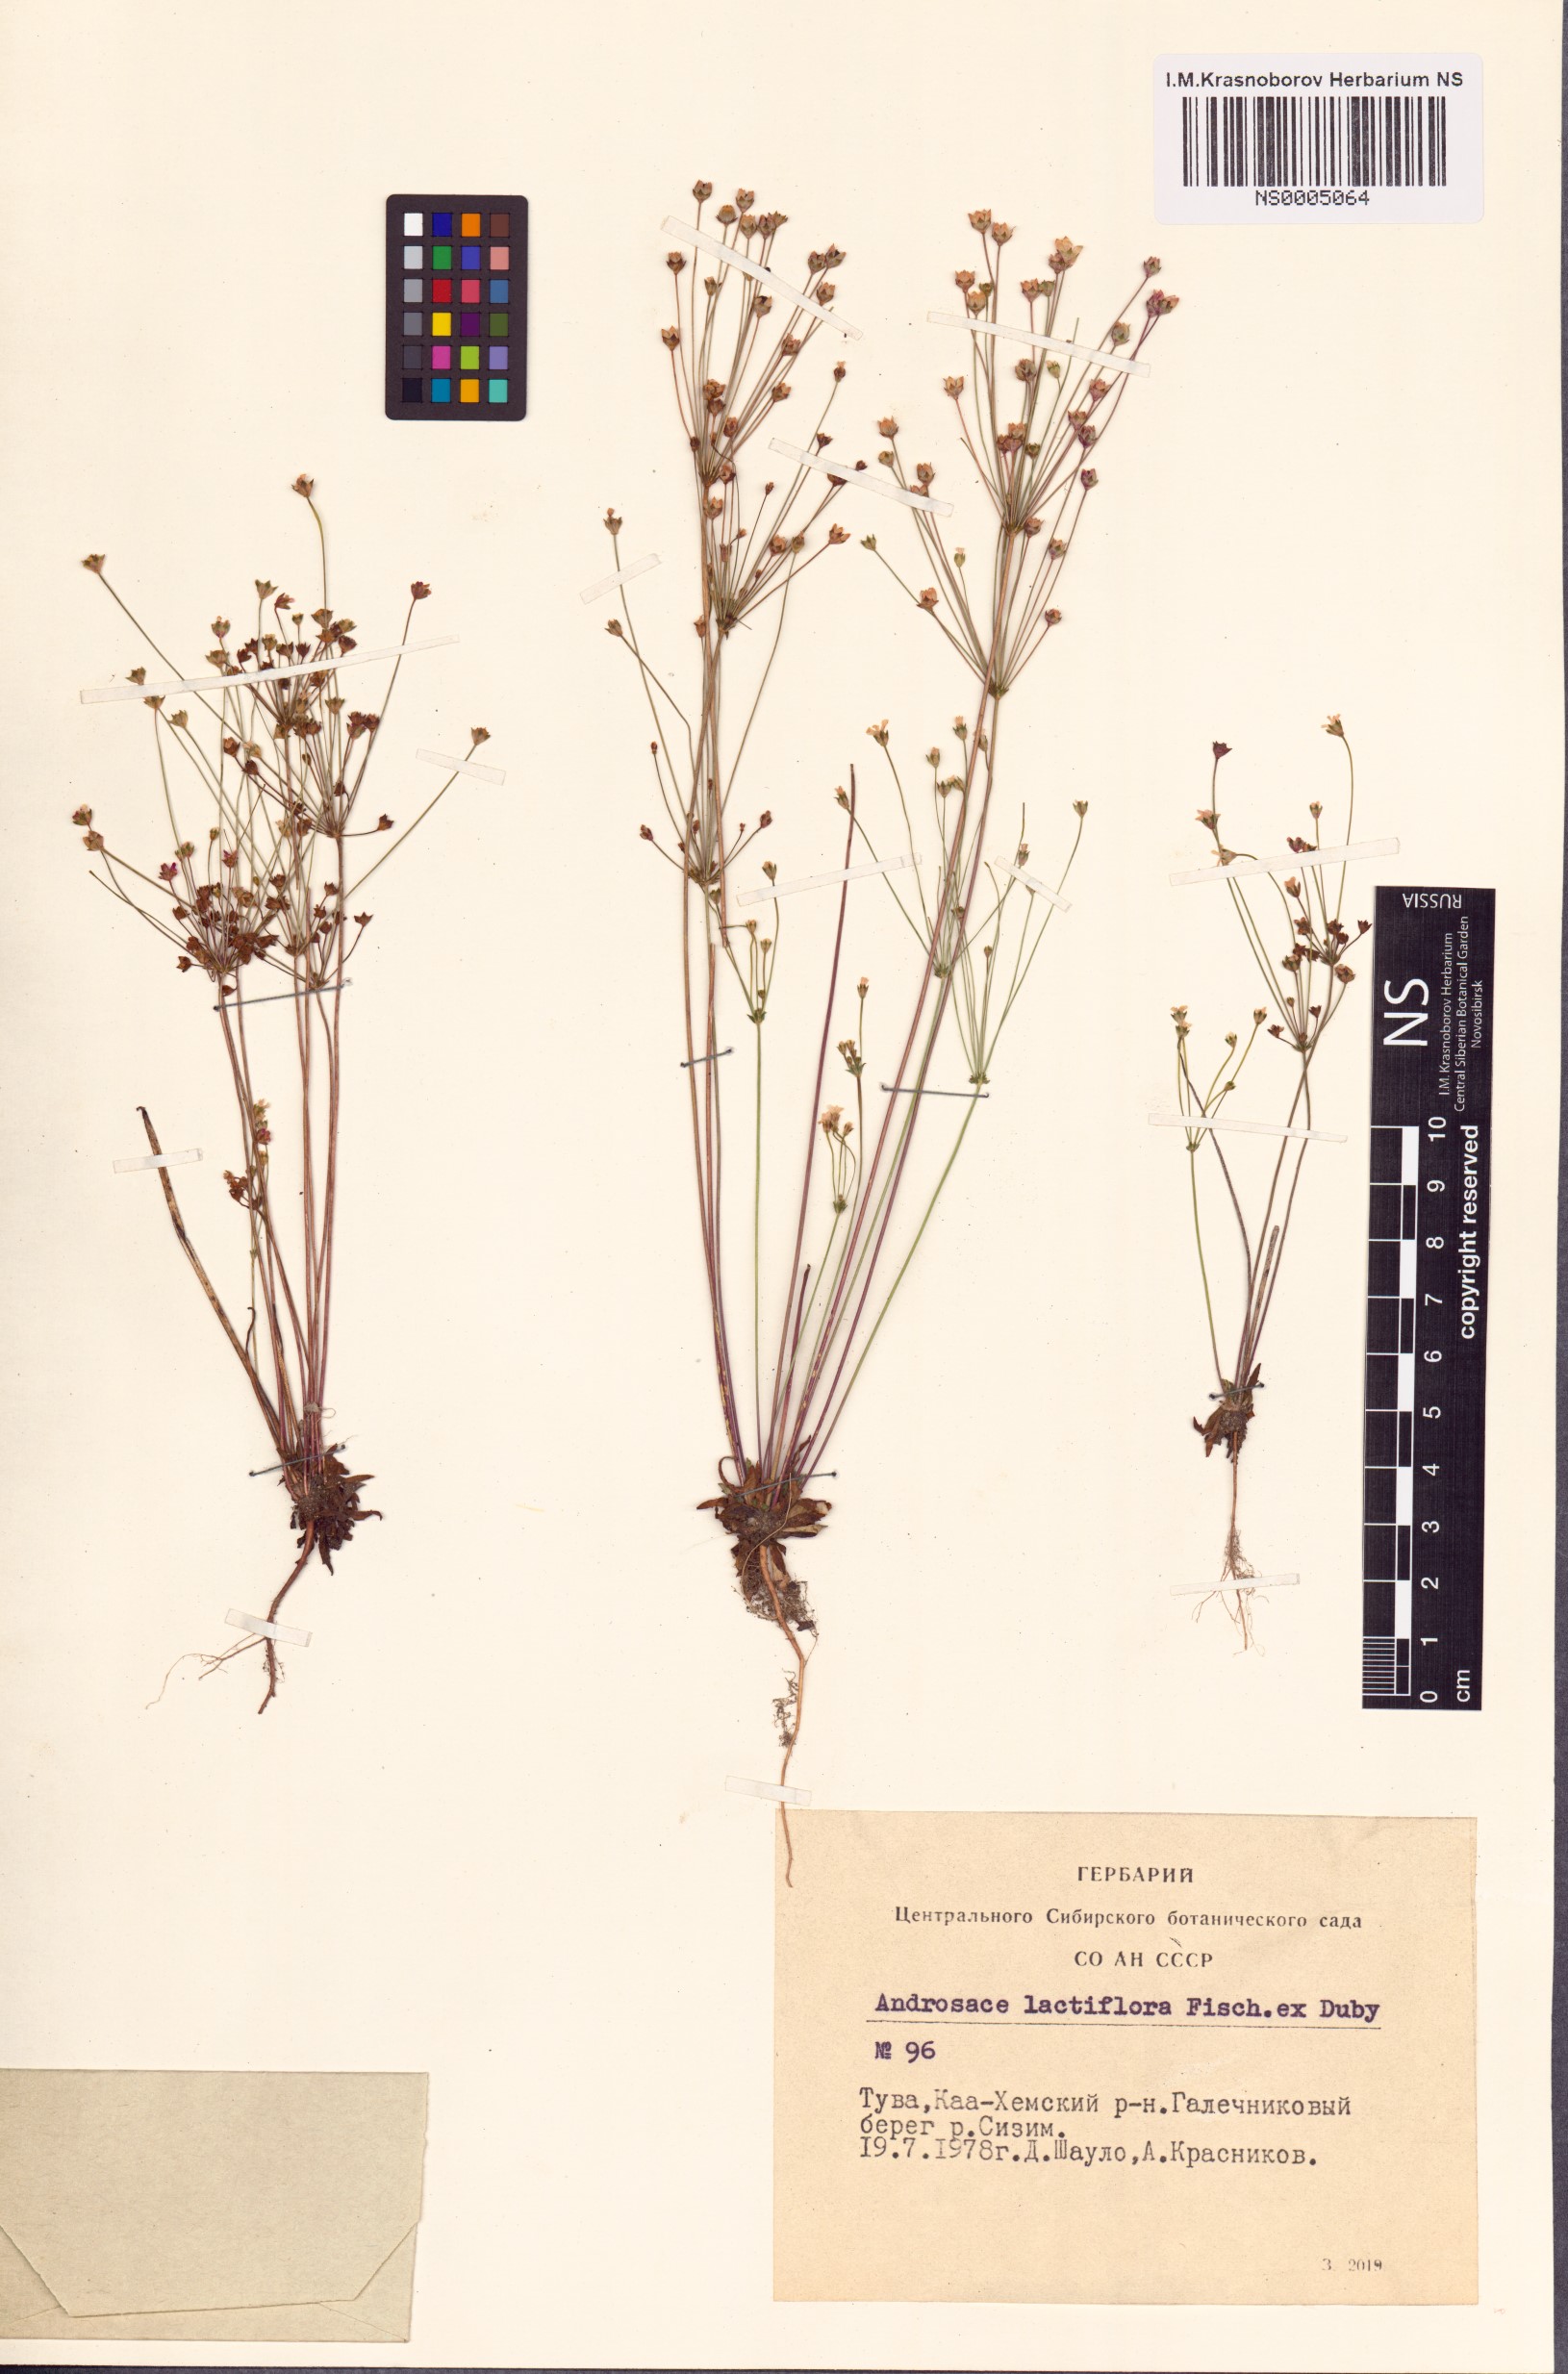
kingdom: Plantae
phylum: Tracheophyta
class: Magnoliopsida
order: Ericales
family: Primulaceae
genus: Androsace
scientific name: Androsace lactiflora
